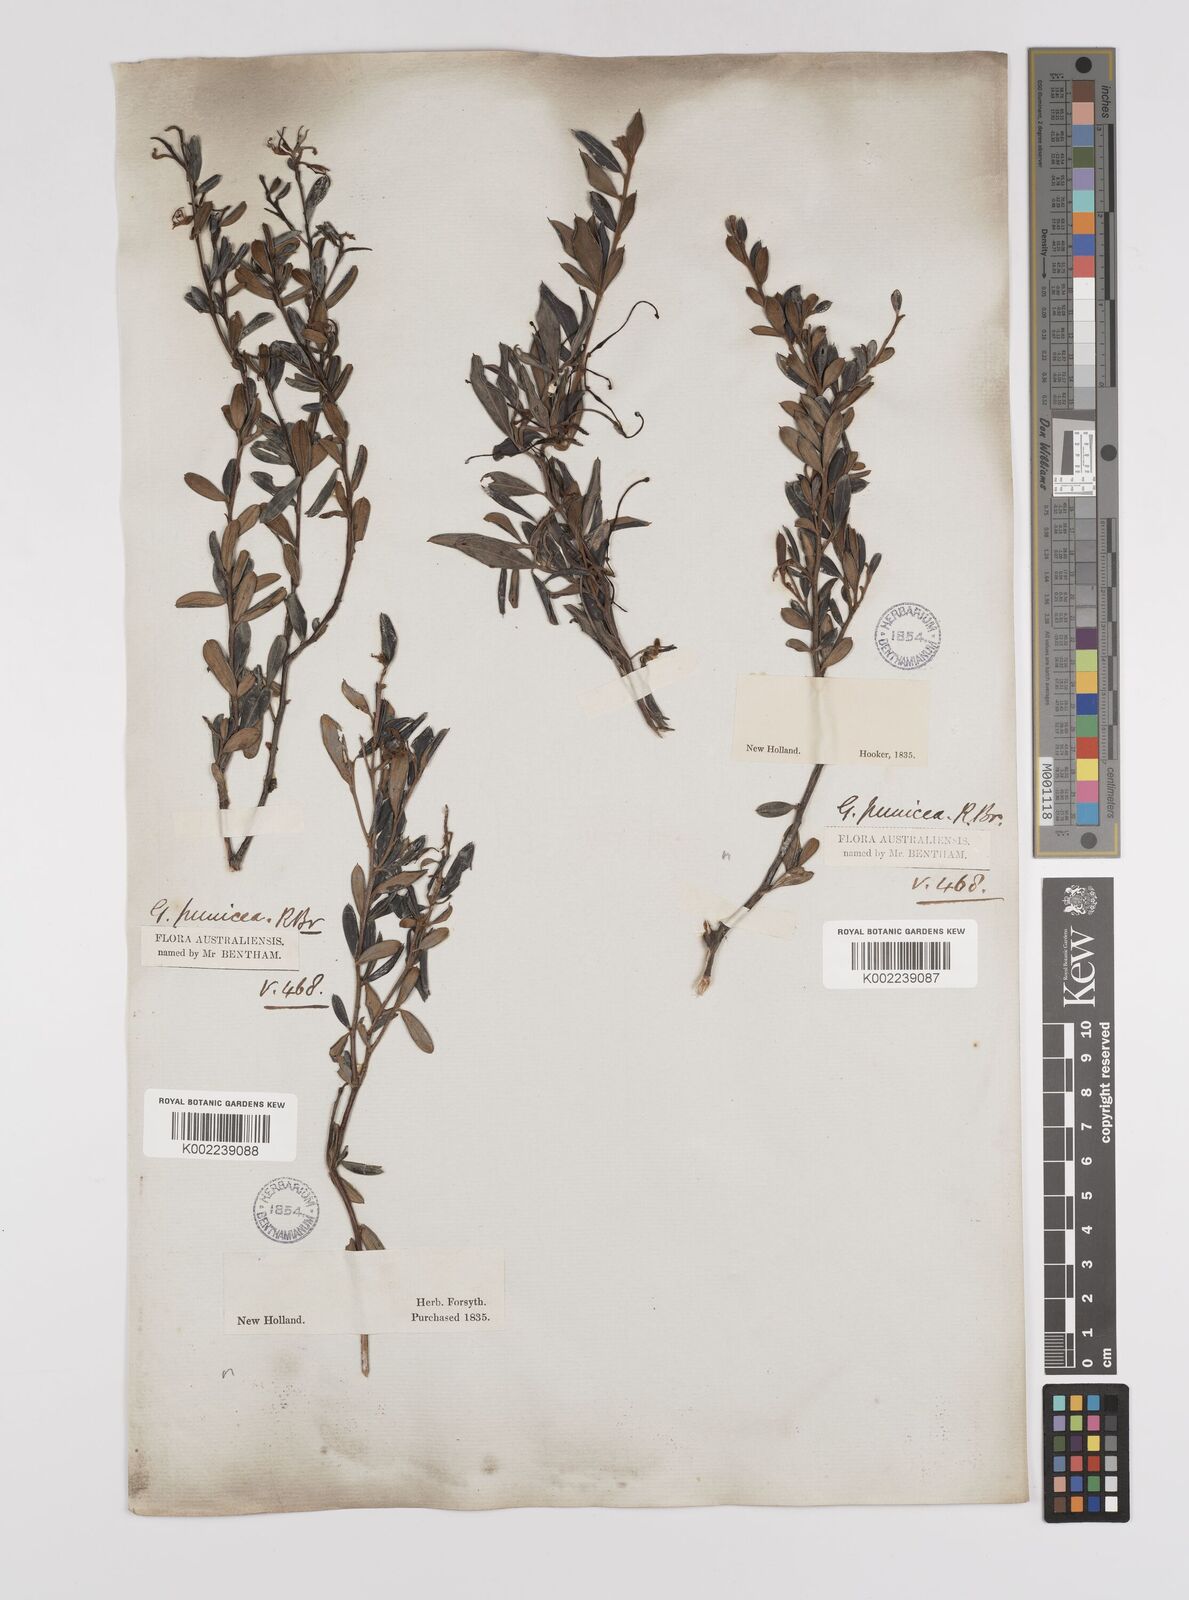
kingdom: Plantae
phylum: Tracheophyta
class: Magnoliopsida
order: Proteales
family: Proteaceae
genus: Grevillea
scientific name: Grevillea speciosa
